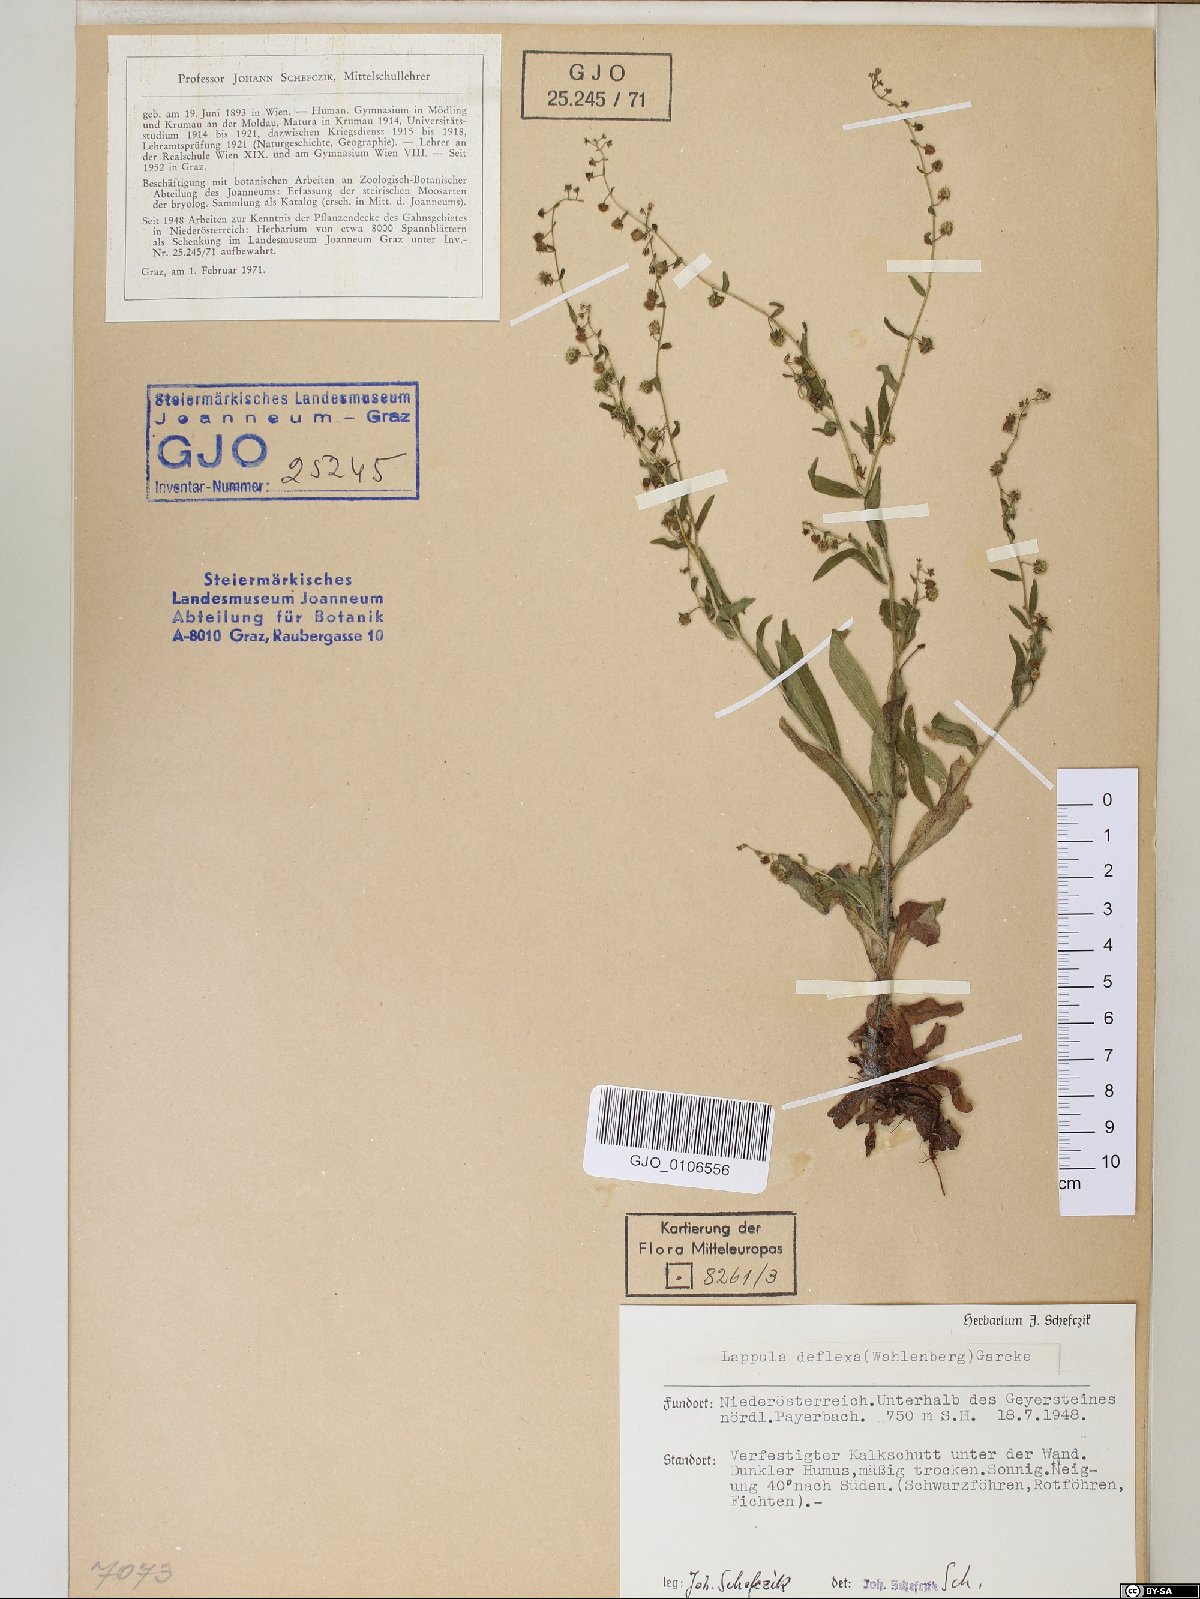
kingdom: Plantae
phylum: Tracheophyta
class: Magnoliopsida
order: Boraginales
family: Boraginaceae
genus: Hackelia
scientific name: Hackelia deflexa
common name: Nodding stickseed
